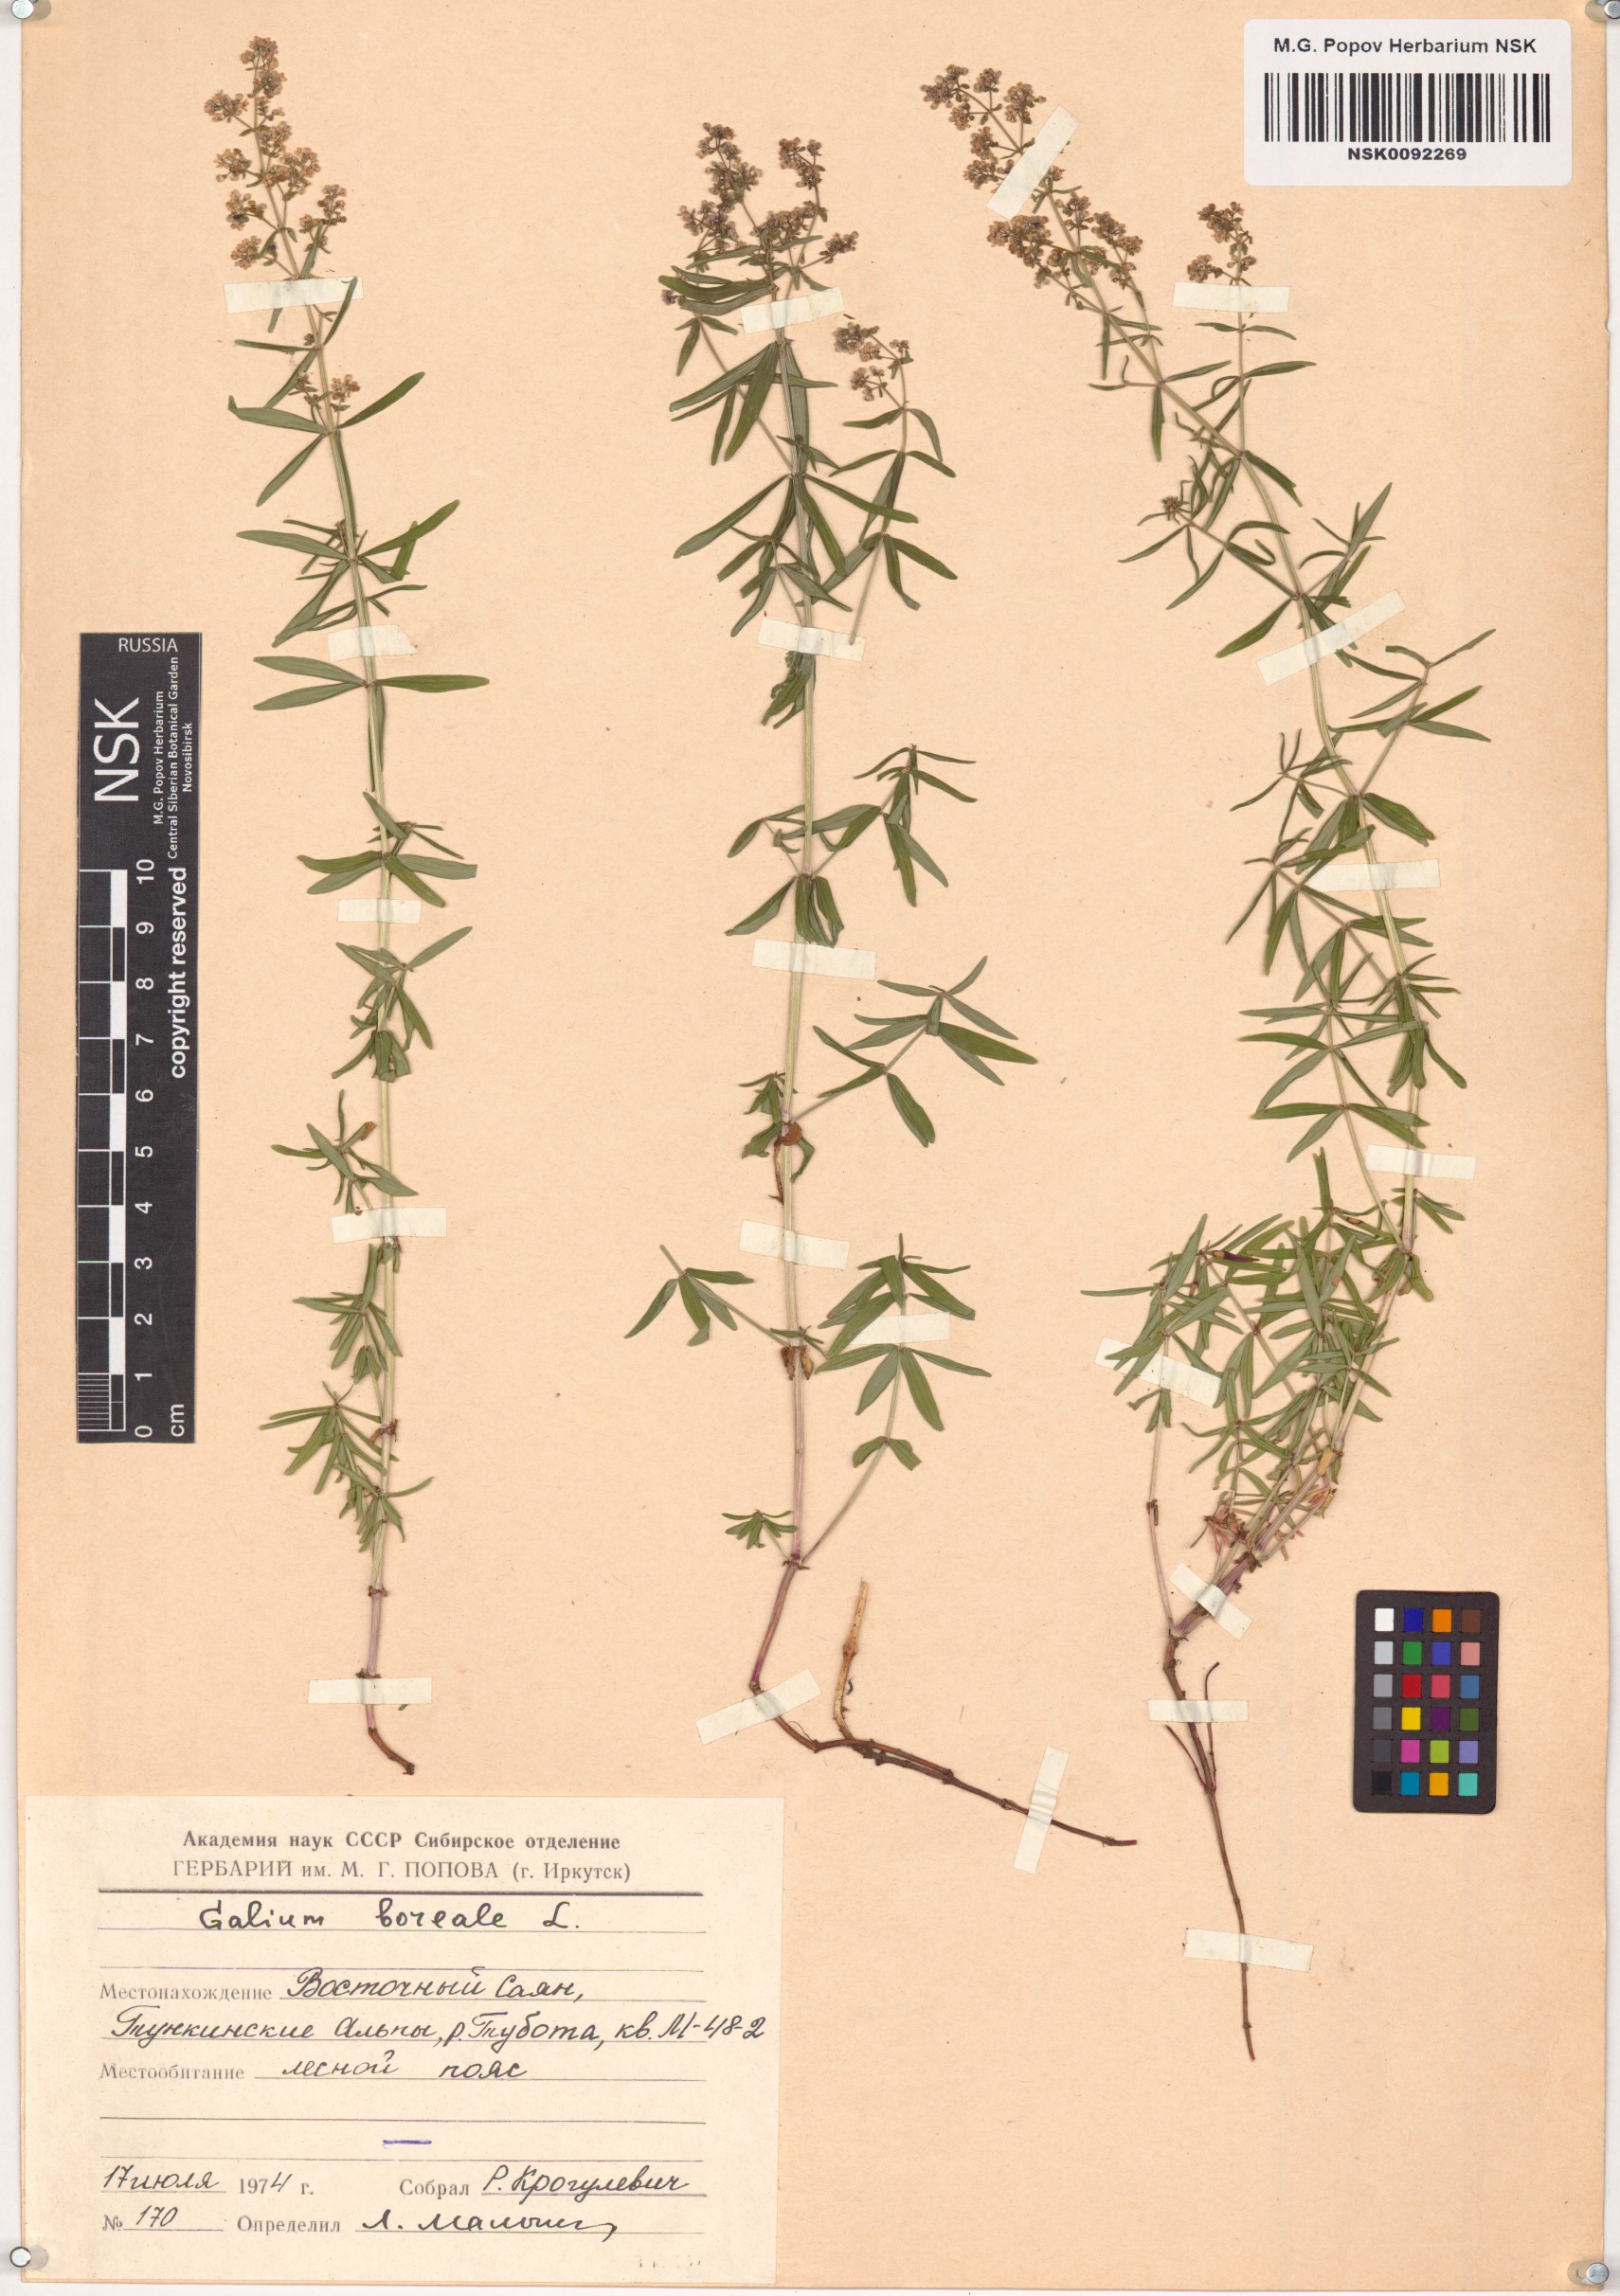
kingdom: Plantae
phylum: Tracheophyta
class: Magnoliopsida
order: Gentianales
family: Rubiaceae
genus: Galium
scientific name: Galium boreale
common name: Northern bedstraw
